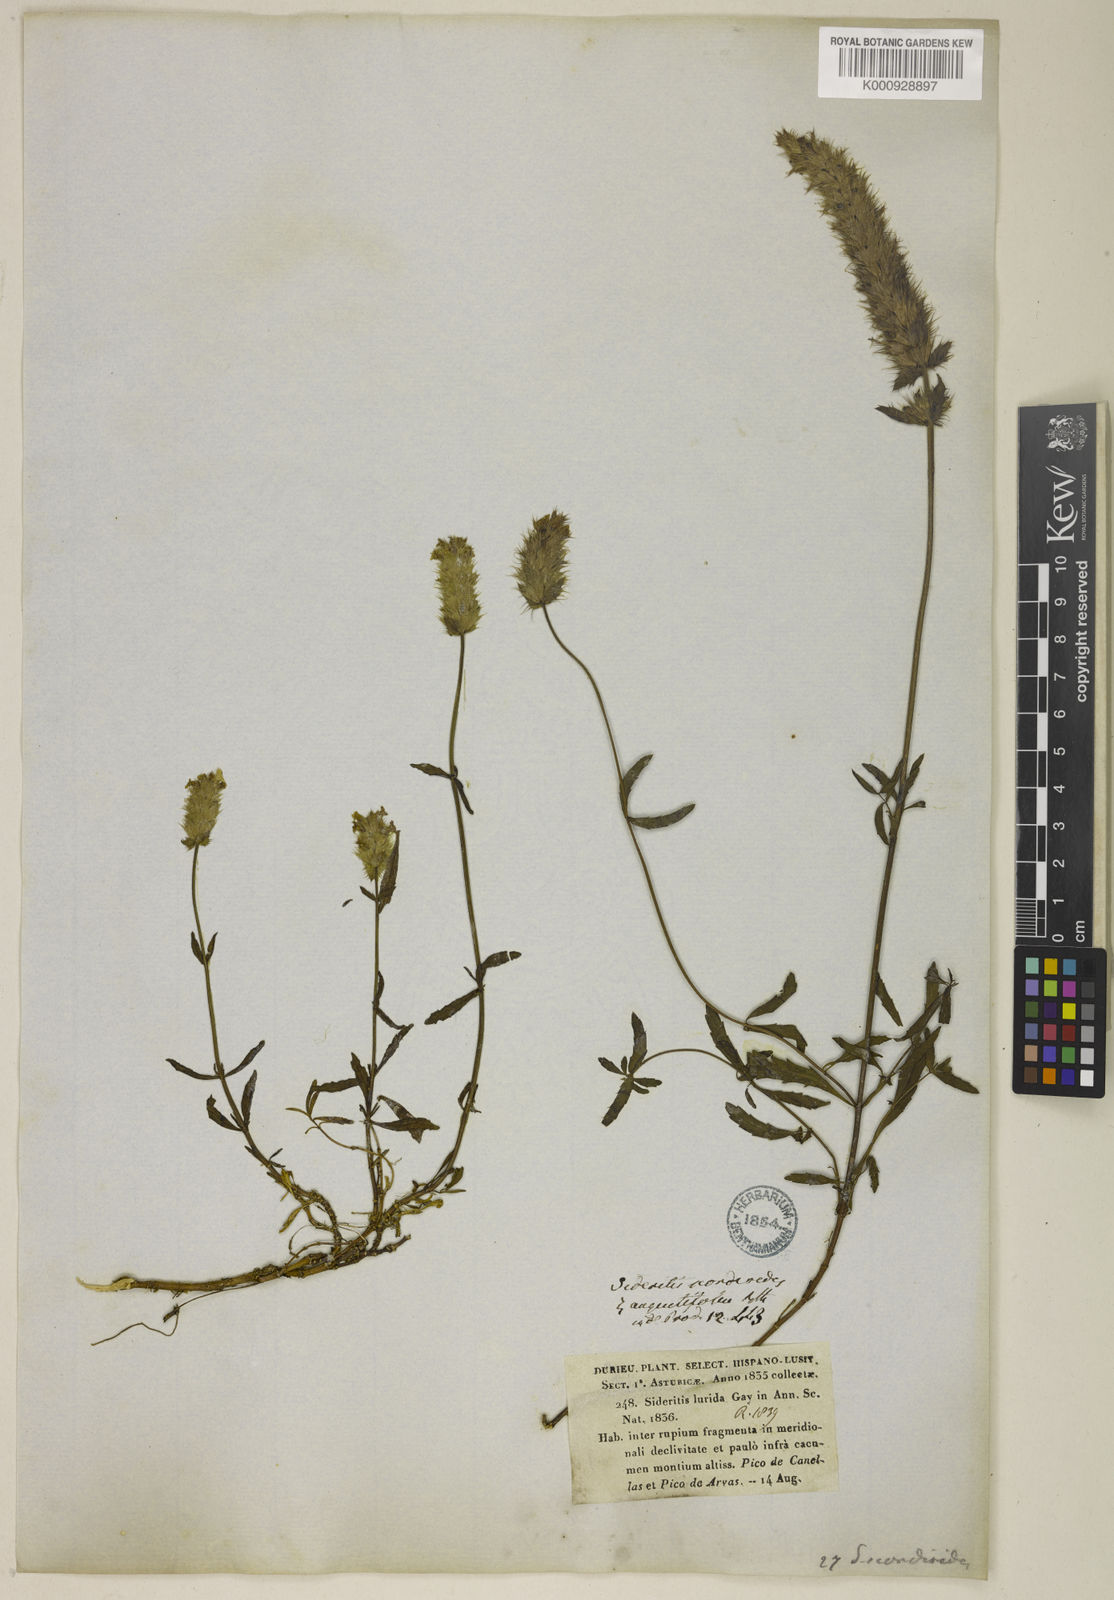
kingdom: Plantae
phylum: Tracheophyta
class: Magnoliopsida
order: Lamiales
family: Lamiaceae
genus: Sideritis
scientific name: Sideritis hyssopifolia
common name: Mountain tea
